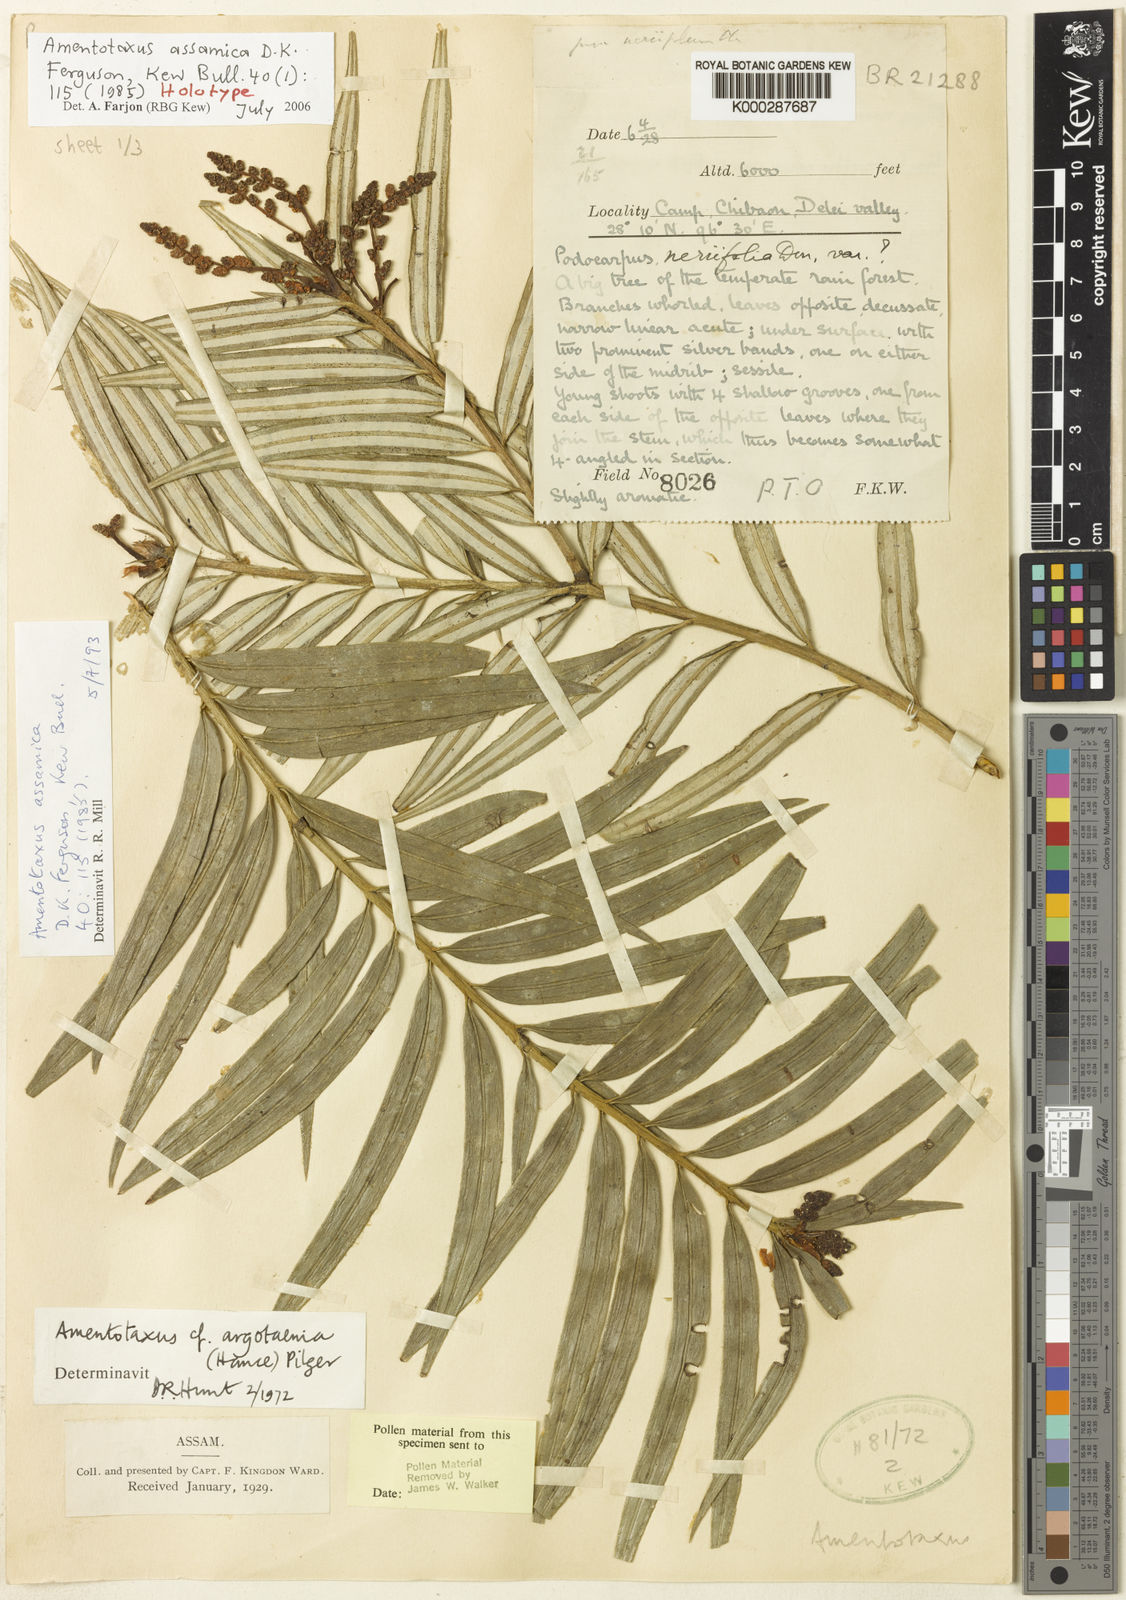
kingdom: Plantae
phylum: Tracheophyta
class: Pinopsida
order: Pinales
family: Taxaceae
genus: Amentotaxus
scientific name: Amentotaxus assamica
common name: Assam catkin yew
